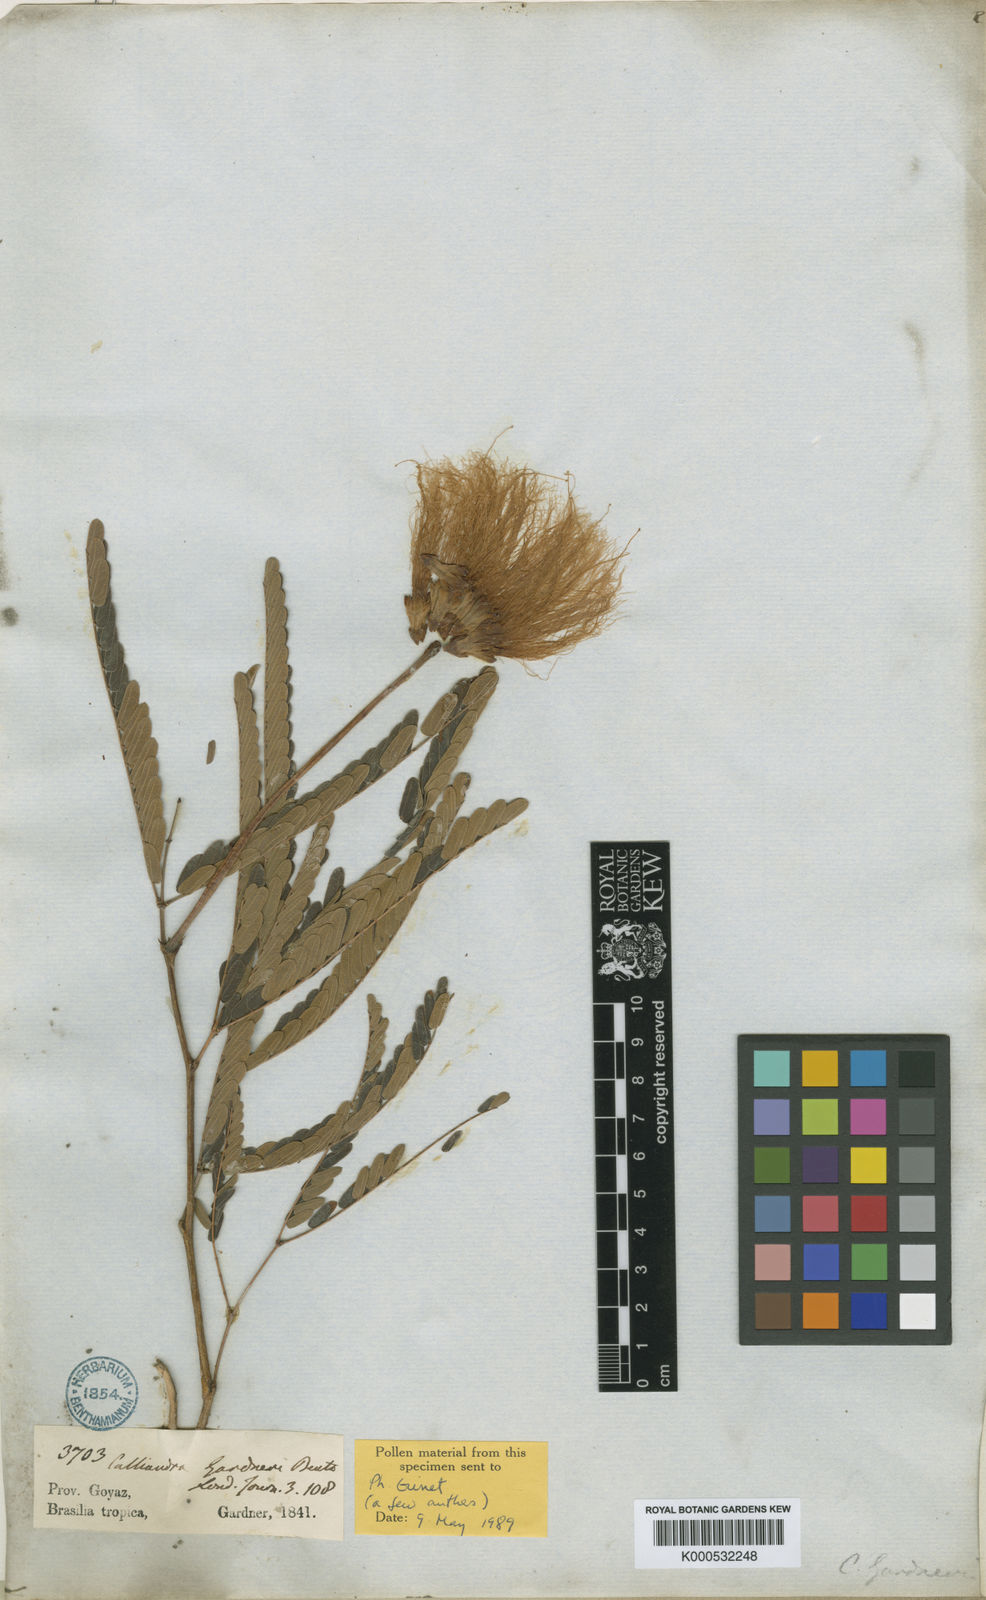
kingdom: Plantae
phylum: Tracheophyta
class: Magnoliopsida
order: Fabales
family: Fabaceae
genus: Calliandra
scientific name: Calliandra gardneri
